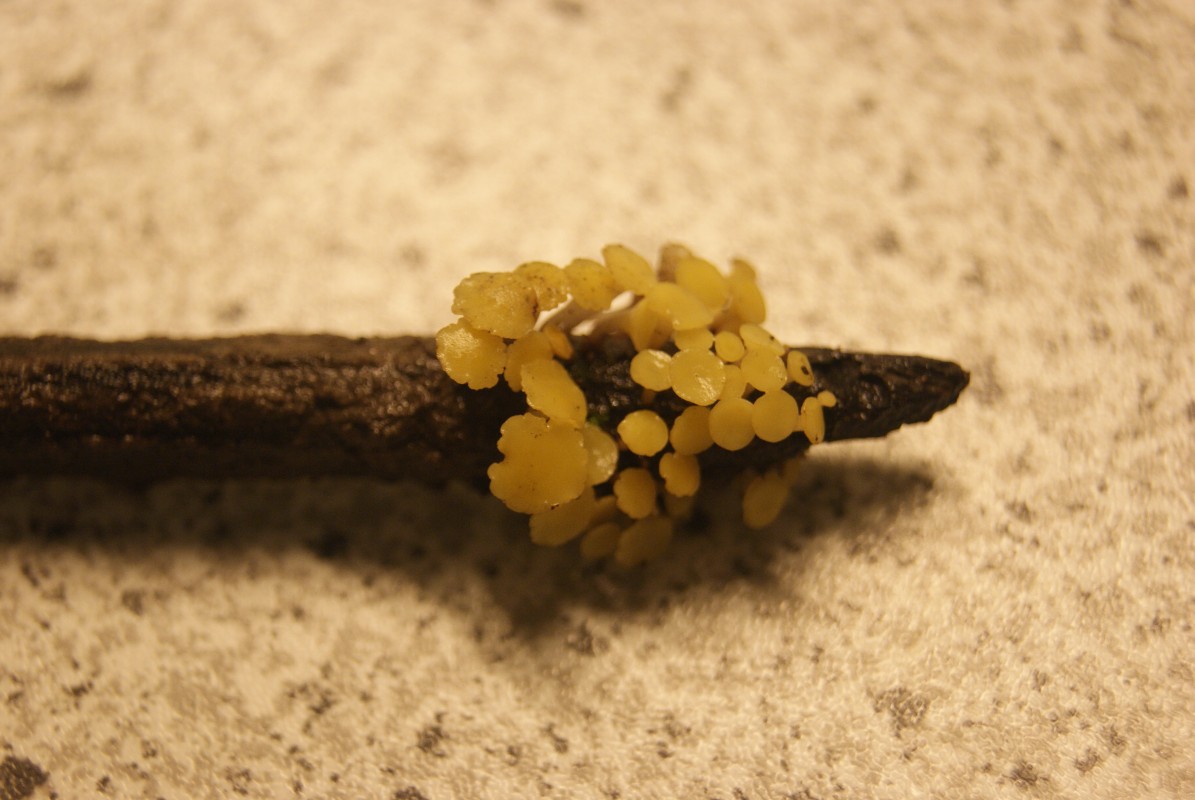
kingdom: Fungi
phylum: Ascomycota
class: Leotiomycetes
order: Helotiales
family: Helotiaceae
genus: Hymenoscyphus
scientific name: Hymenoscyphus
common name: stilkskive
